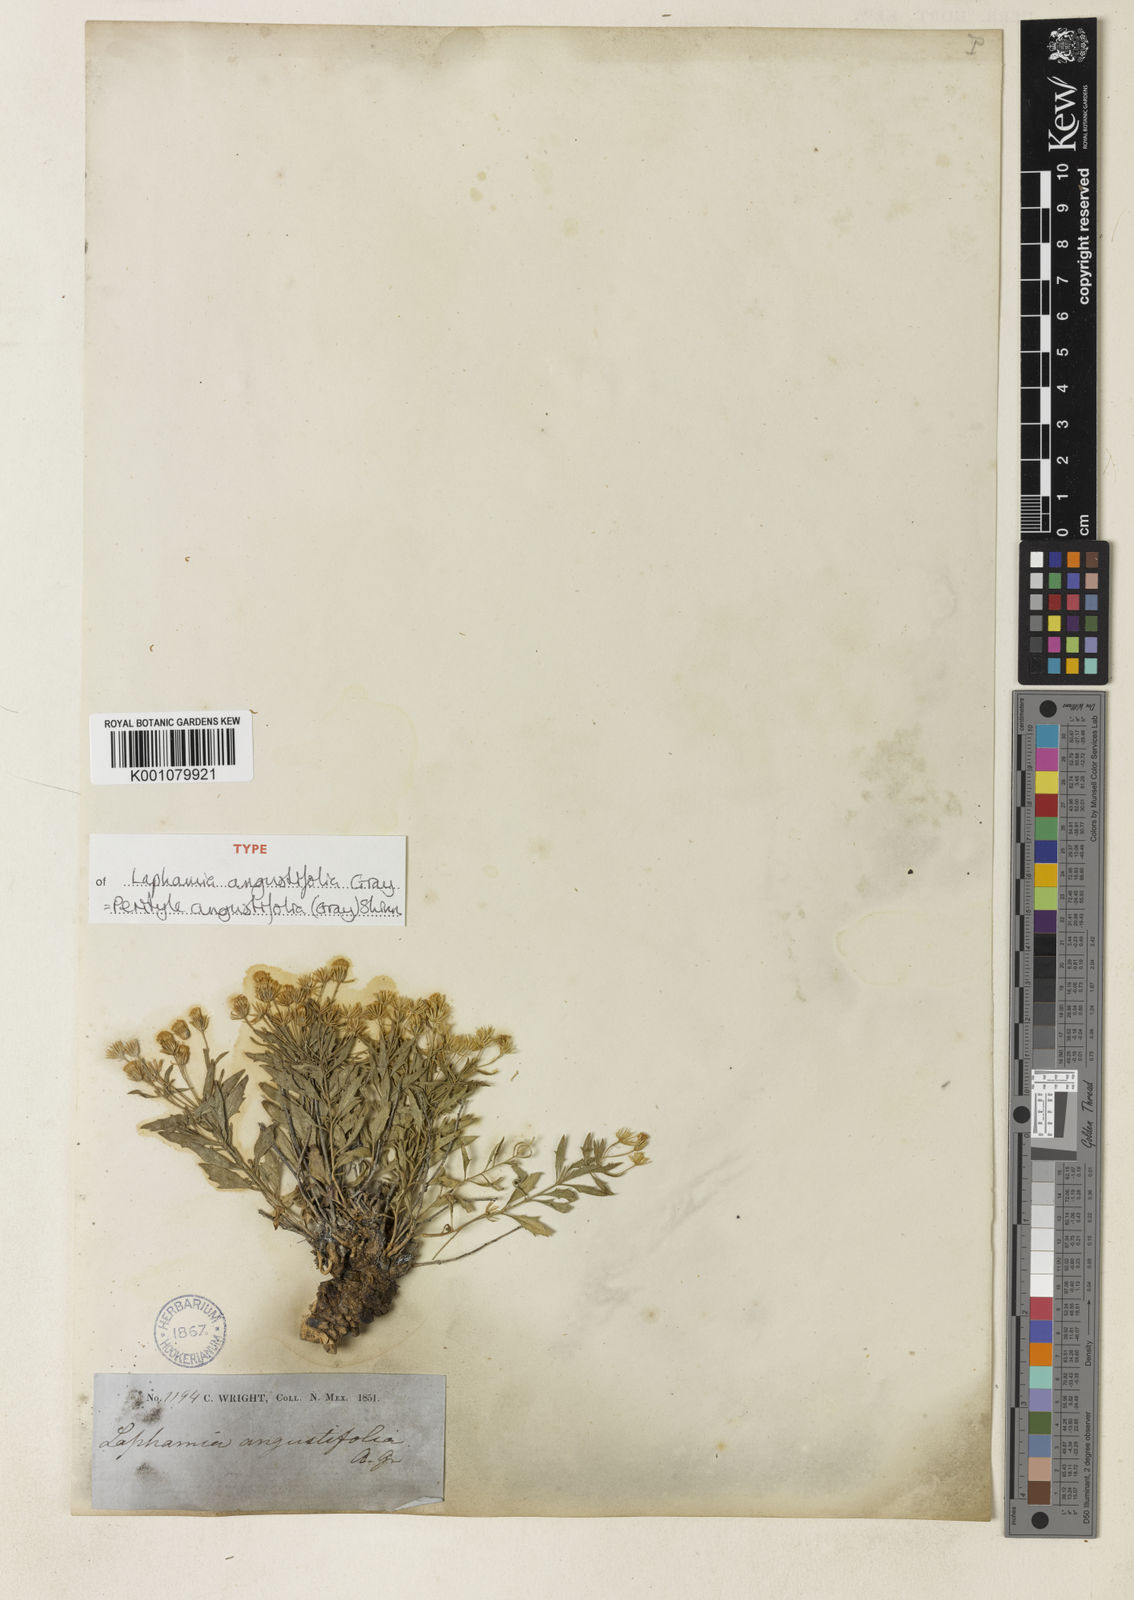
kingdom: Plantae
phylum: Tracheophyta
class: Magnoliopsida
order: Asterales
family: Asteraceae
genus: Laphamia
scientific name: Laphamia angustifolia
